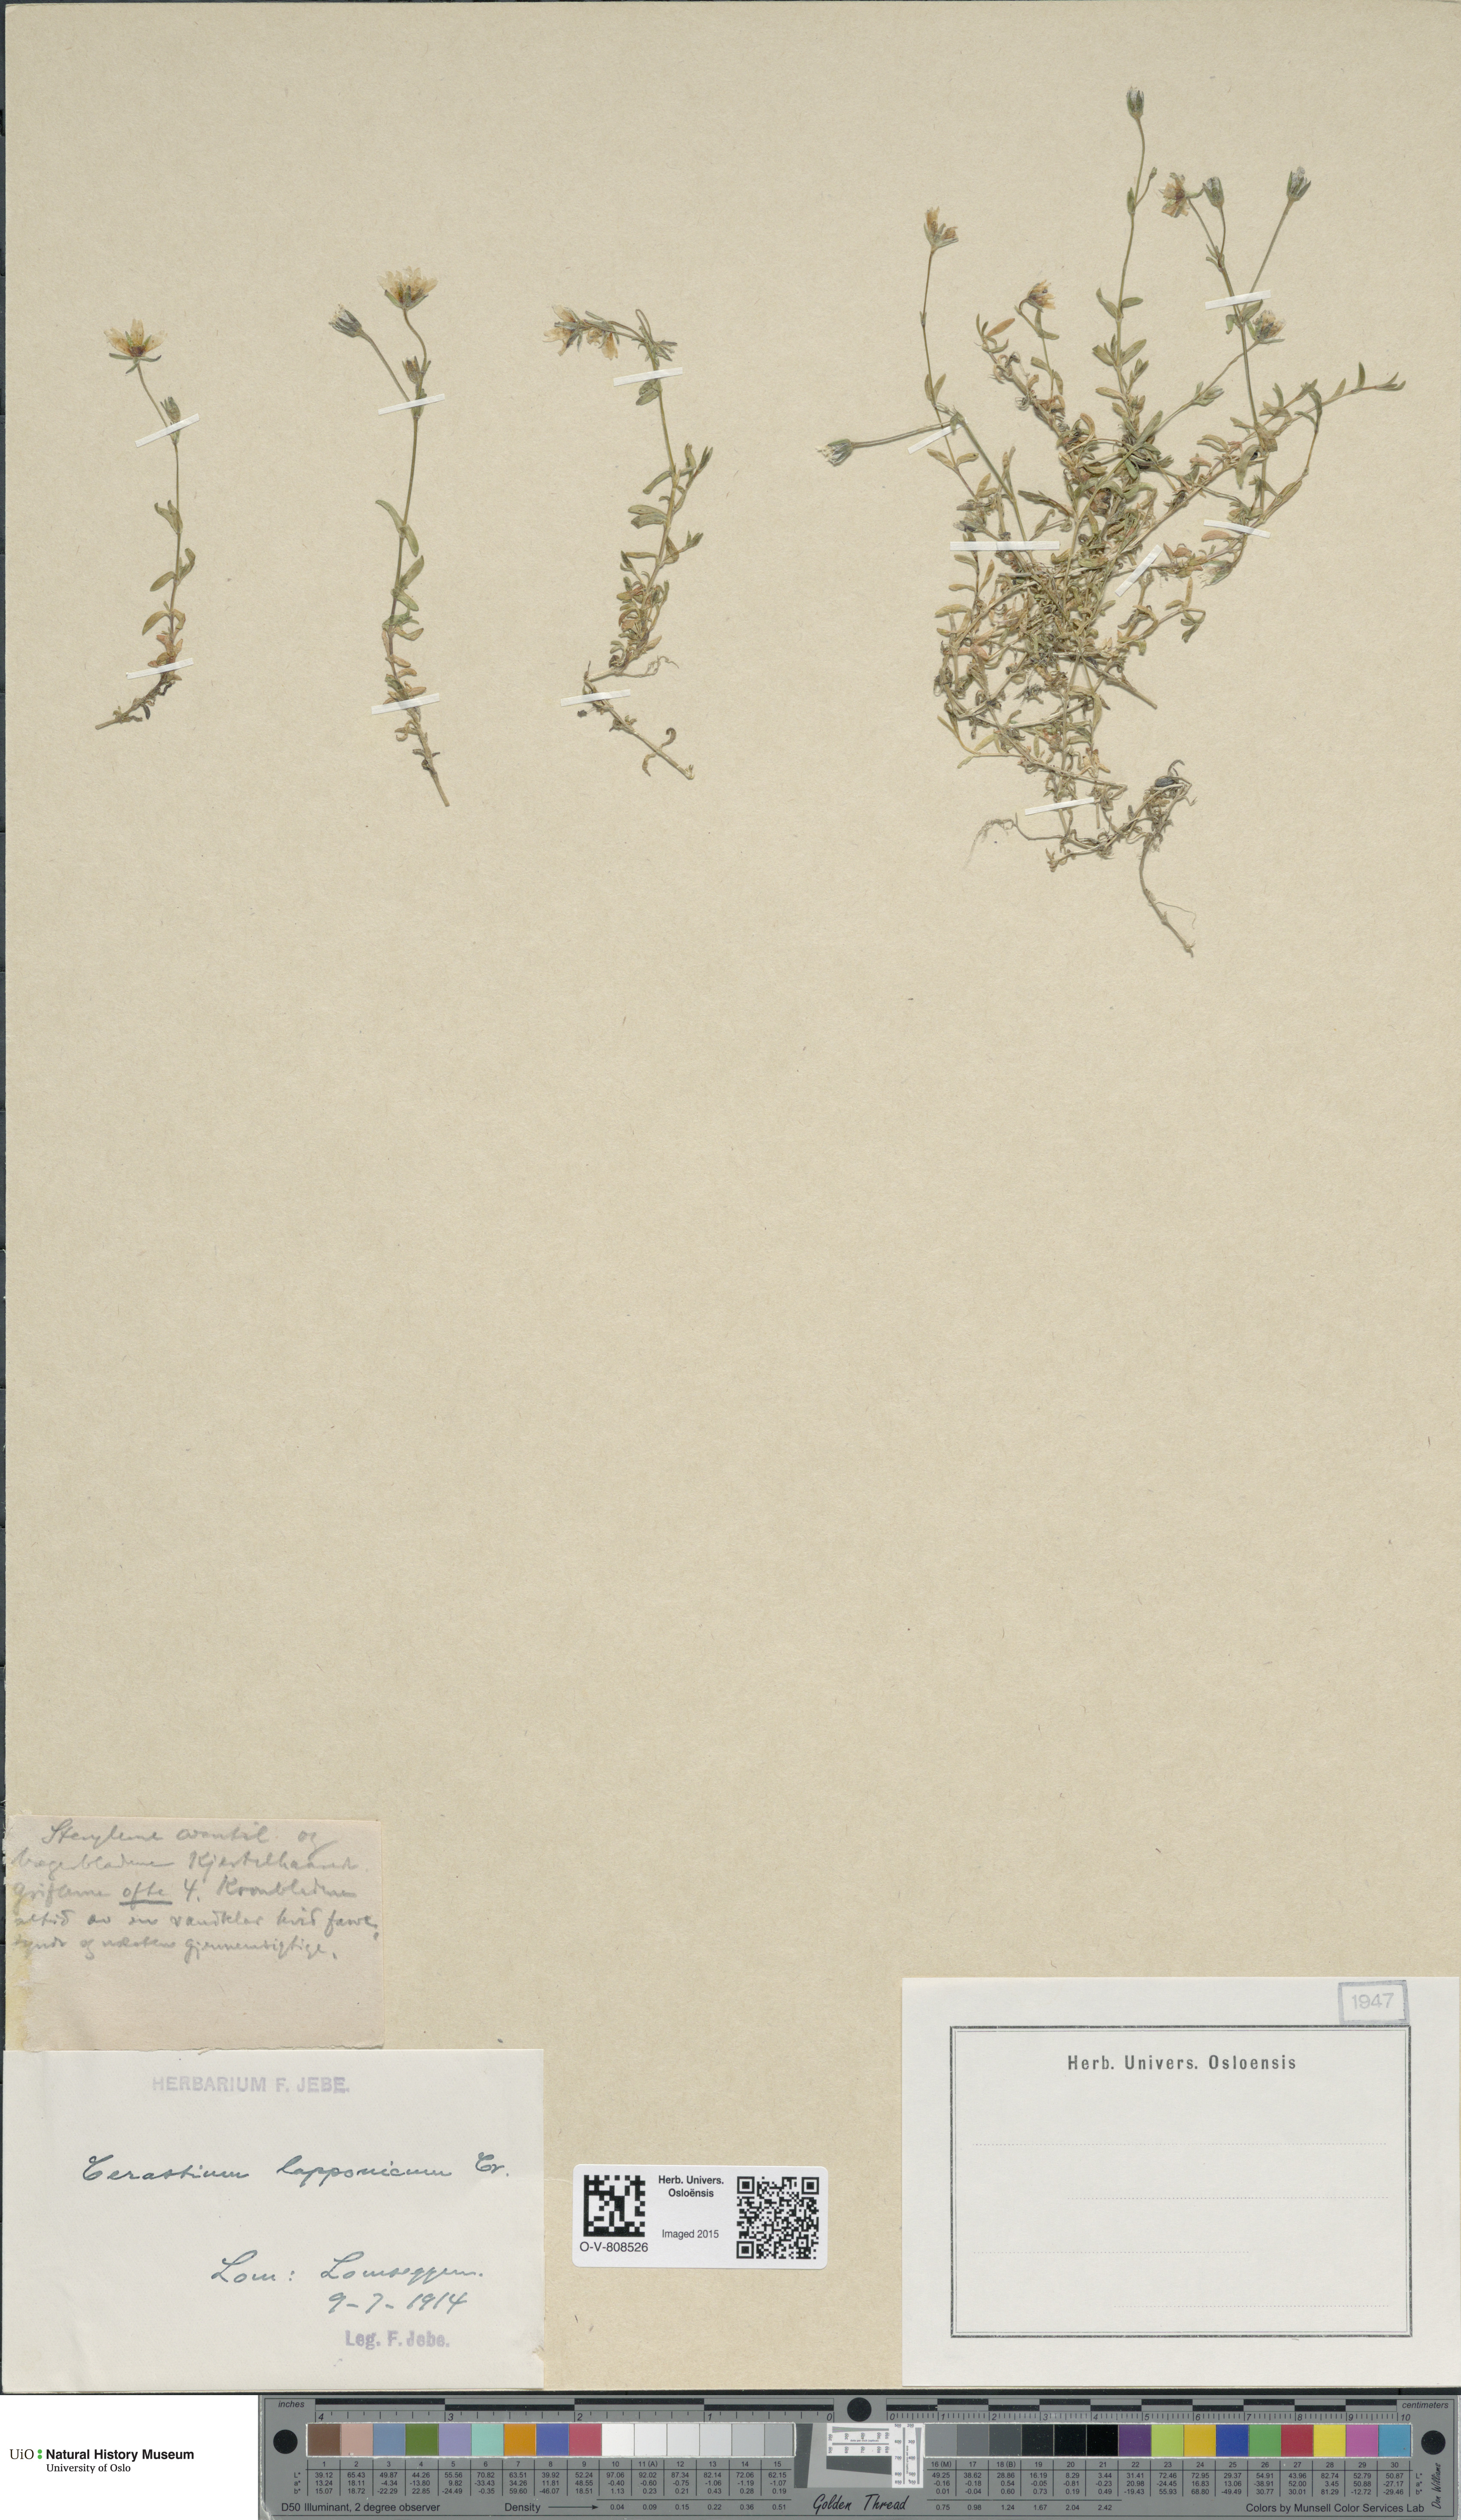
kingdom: Plantae
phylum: Tracheophyta
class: Magnoliopsida
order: Caryophyllales
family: Caryophyllaceae
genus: Dichodon
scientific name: Dichodon cerastoides
